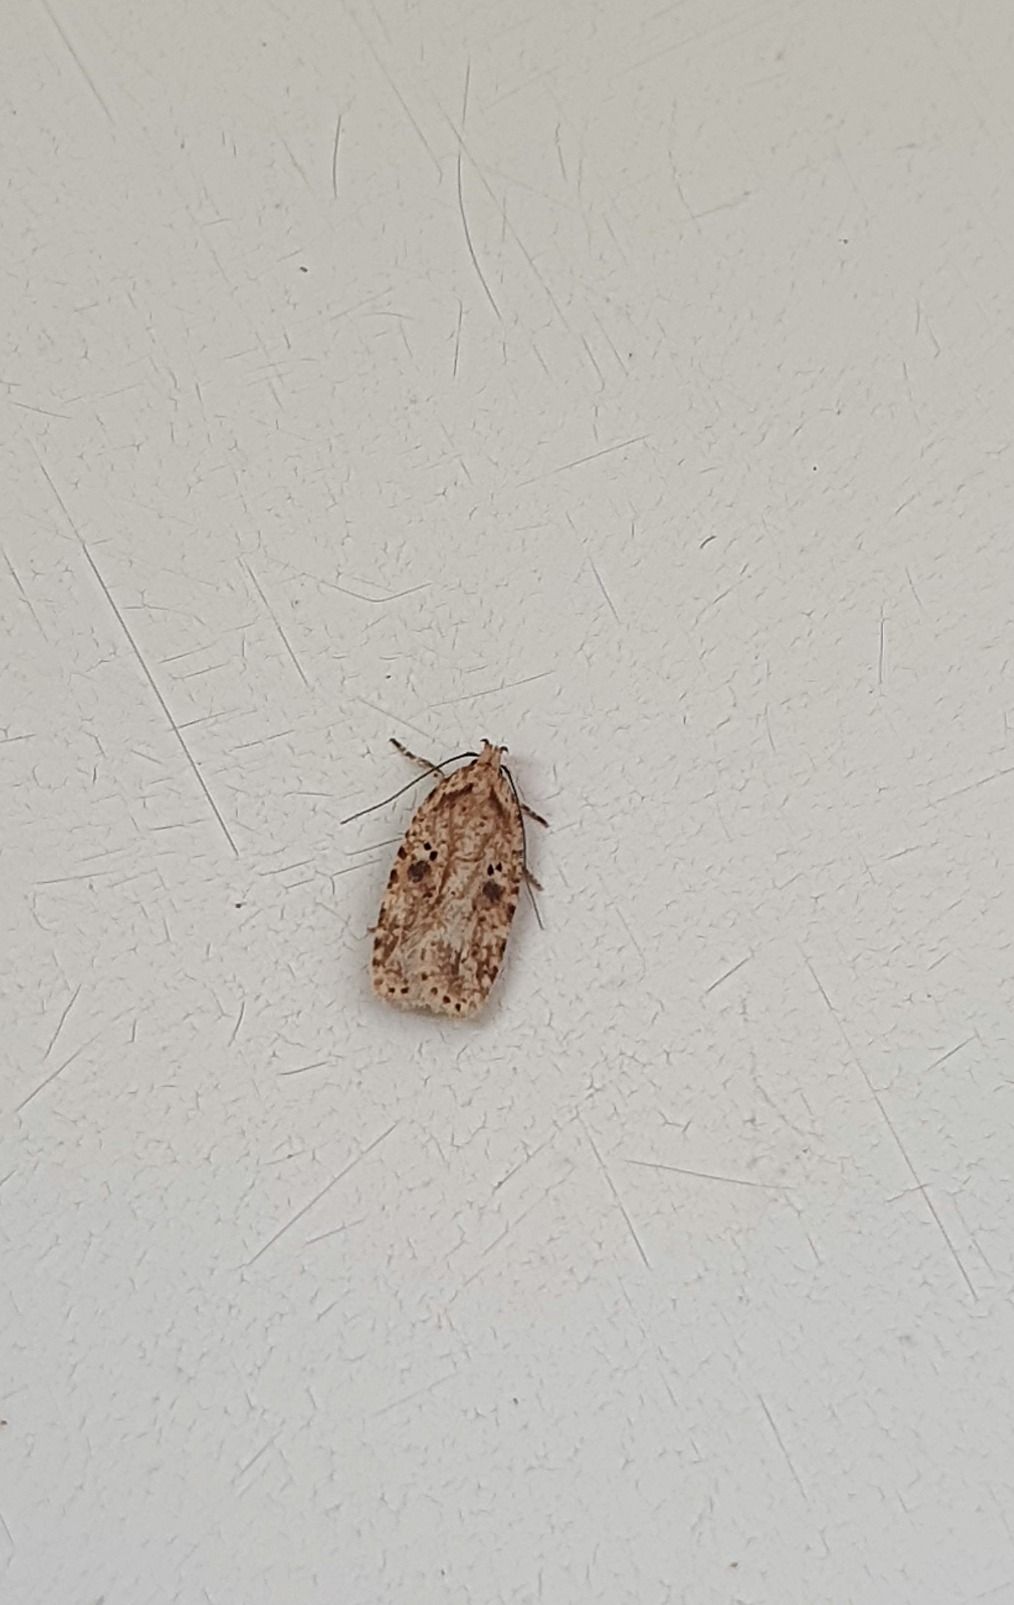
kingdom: Animalia
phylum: Arthropoda
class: Insecta
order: Lepidoptera
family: Depressariidae
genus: Agonopterix
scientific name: Agonopterix arenella
